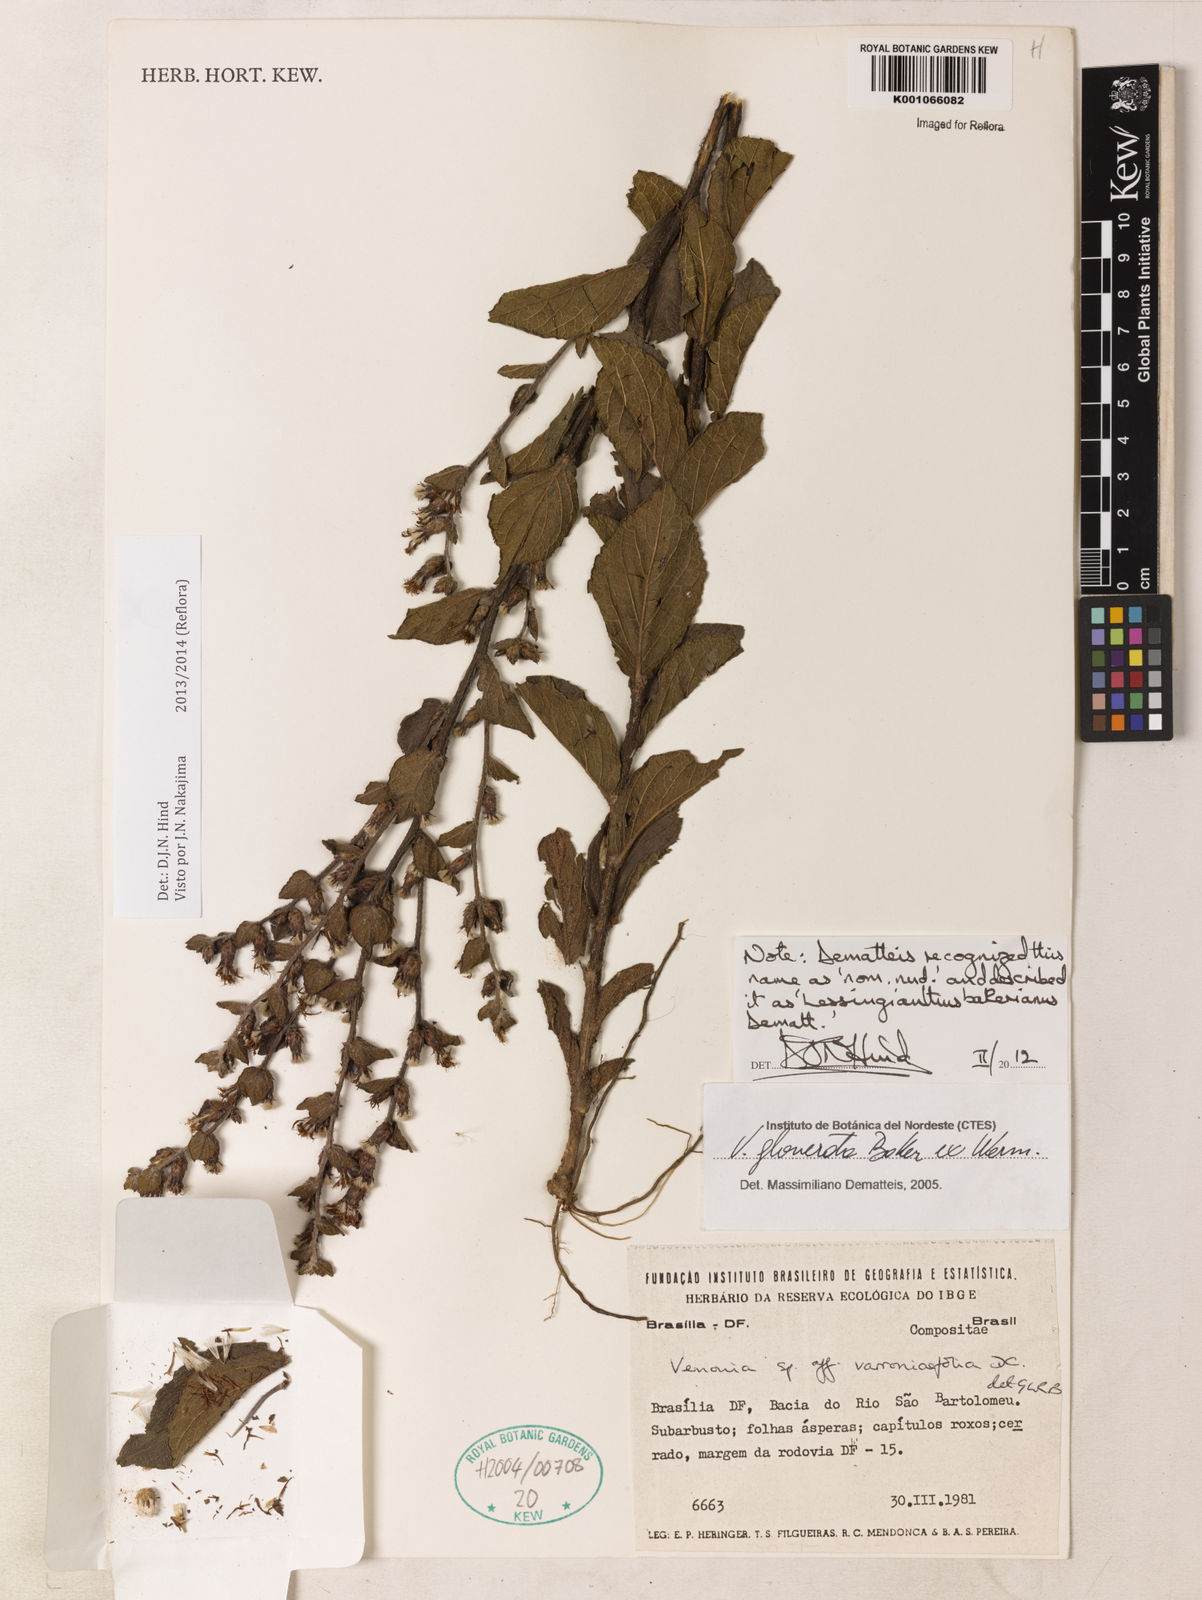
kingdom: Plantae
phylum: Tracheophyta
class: Magnoliopsida
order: Asterales
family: Asteraceae
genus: Lessingianthus
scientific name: Lessingianthus bakerianus
